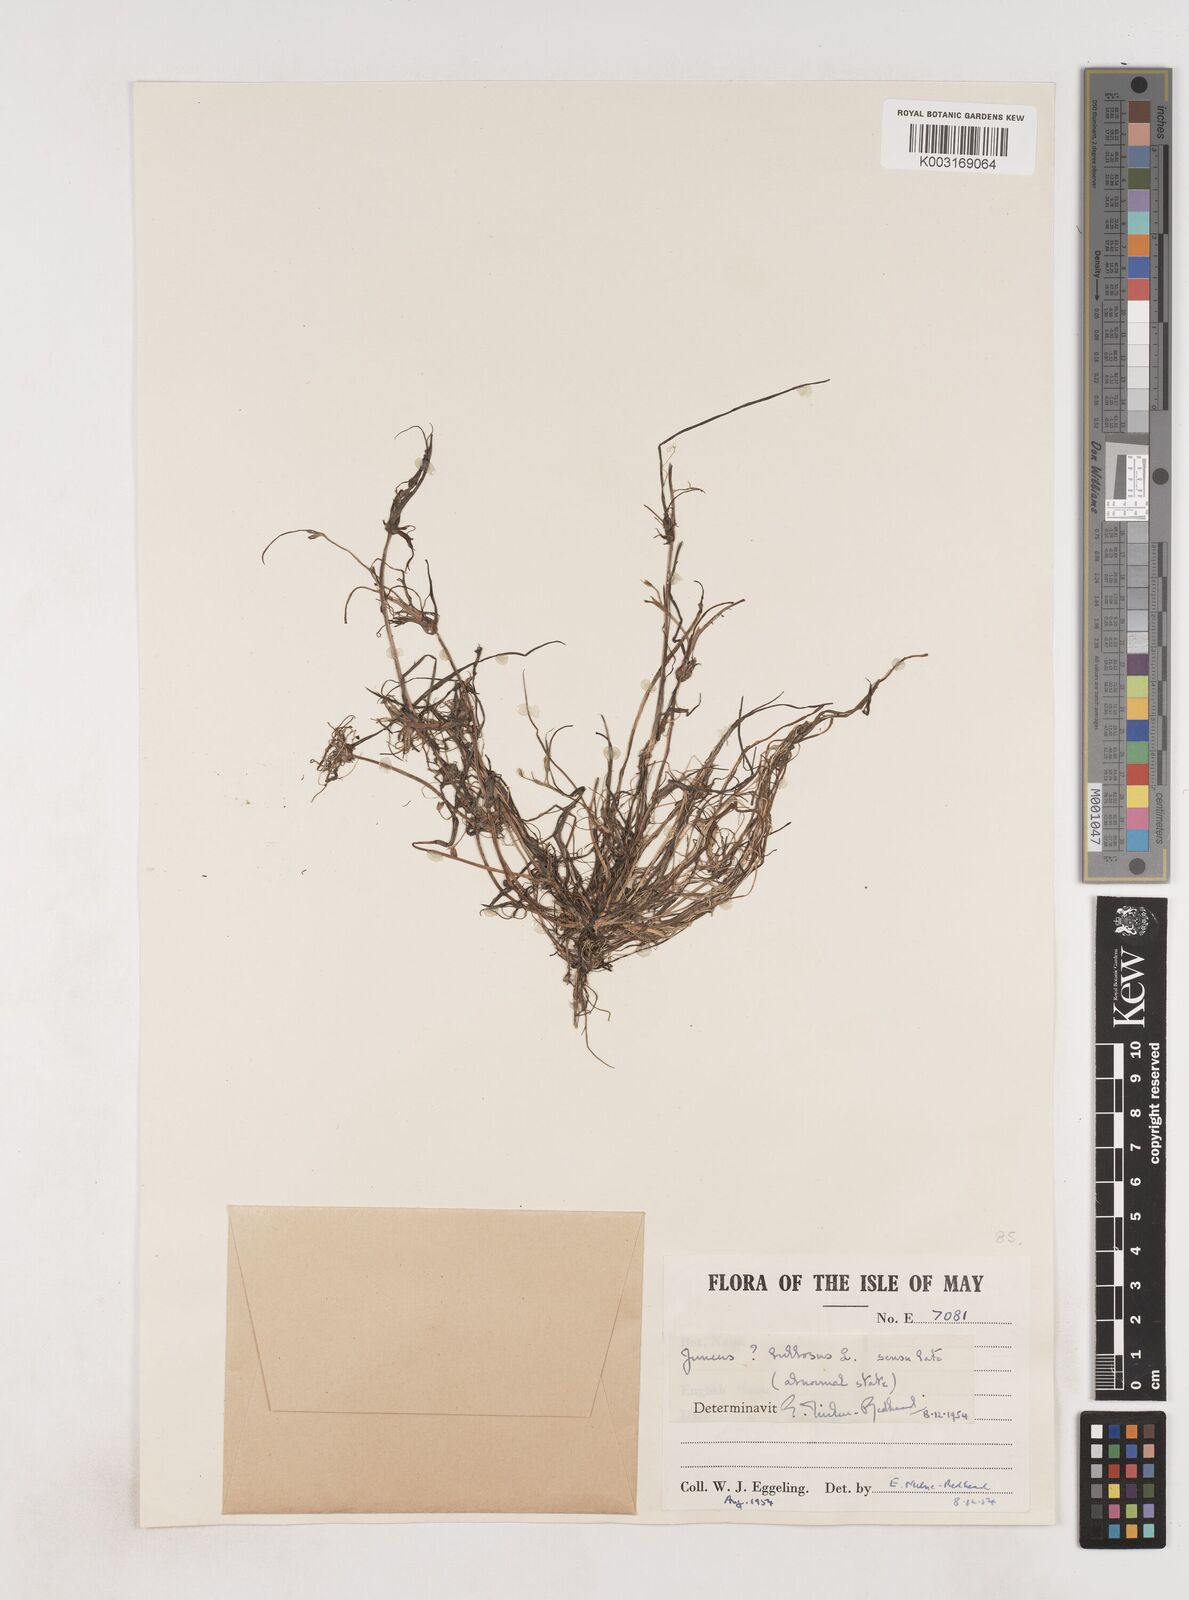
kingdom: Plantae
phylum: Tracheophyta
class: Liliopsida
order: Poales
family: Juncaceae
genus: Juncus
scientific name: Juncus bulbosus
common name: Bulbous rush
